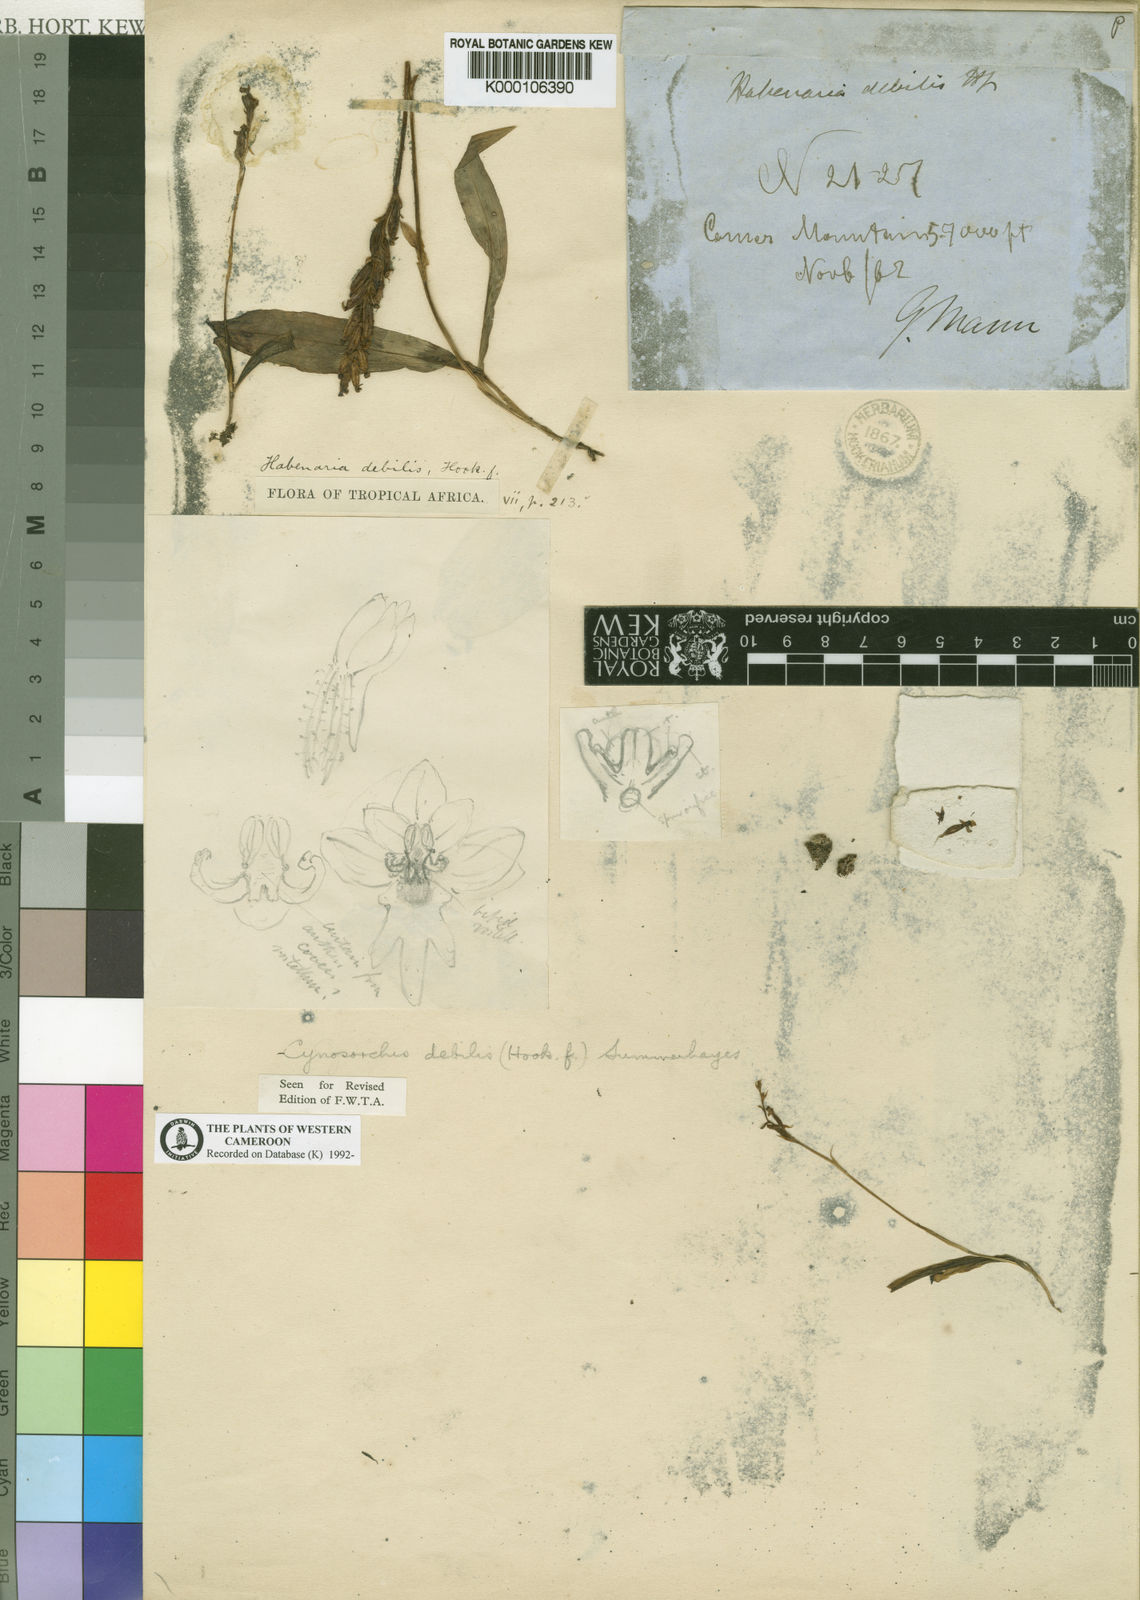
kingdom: Plantae
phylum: Tracheophyta
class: Liliopsida
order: Asparagales
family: Orchidaceae
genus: Cynorkis
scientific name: Cynorkis debilis
